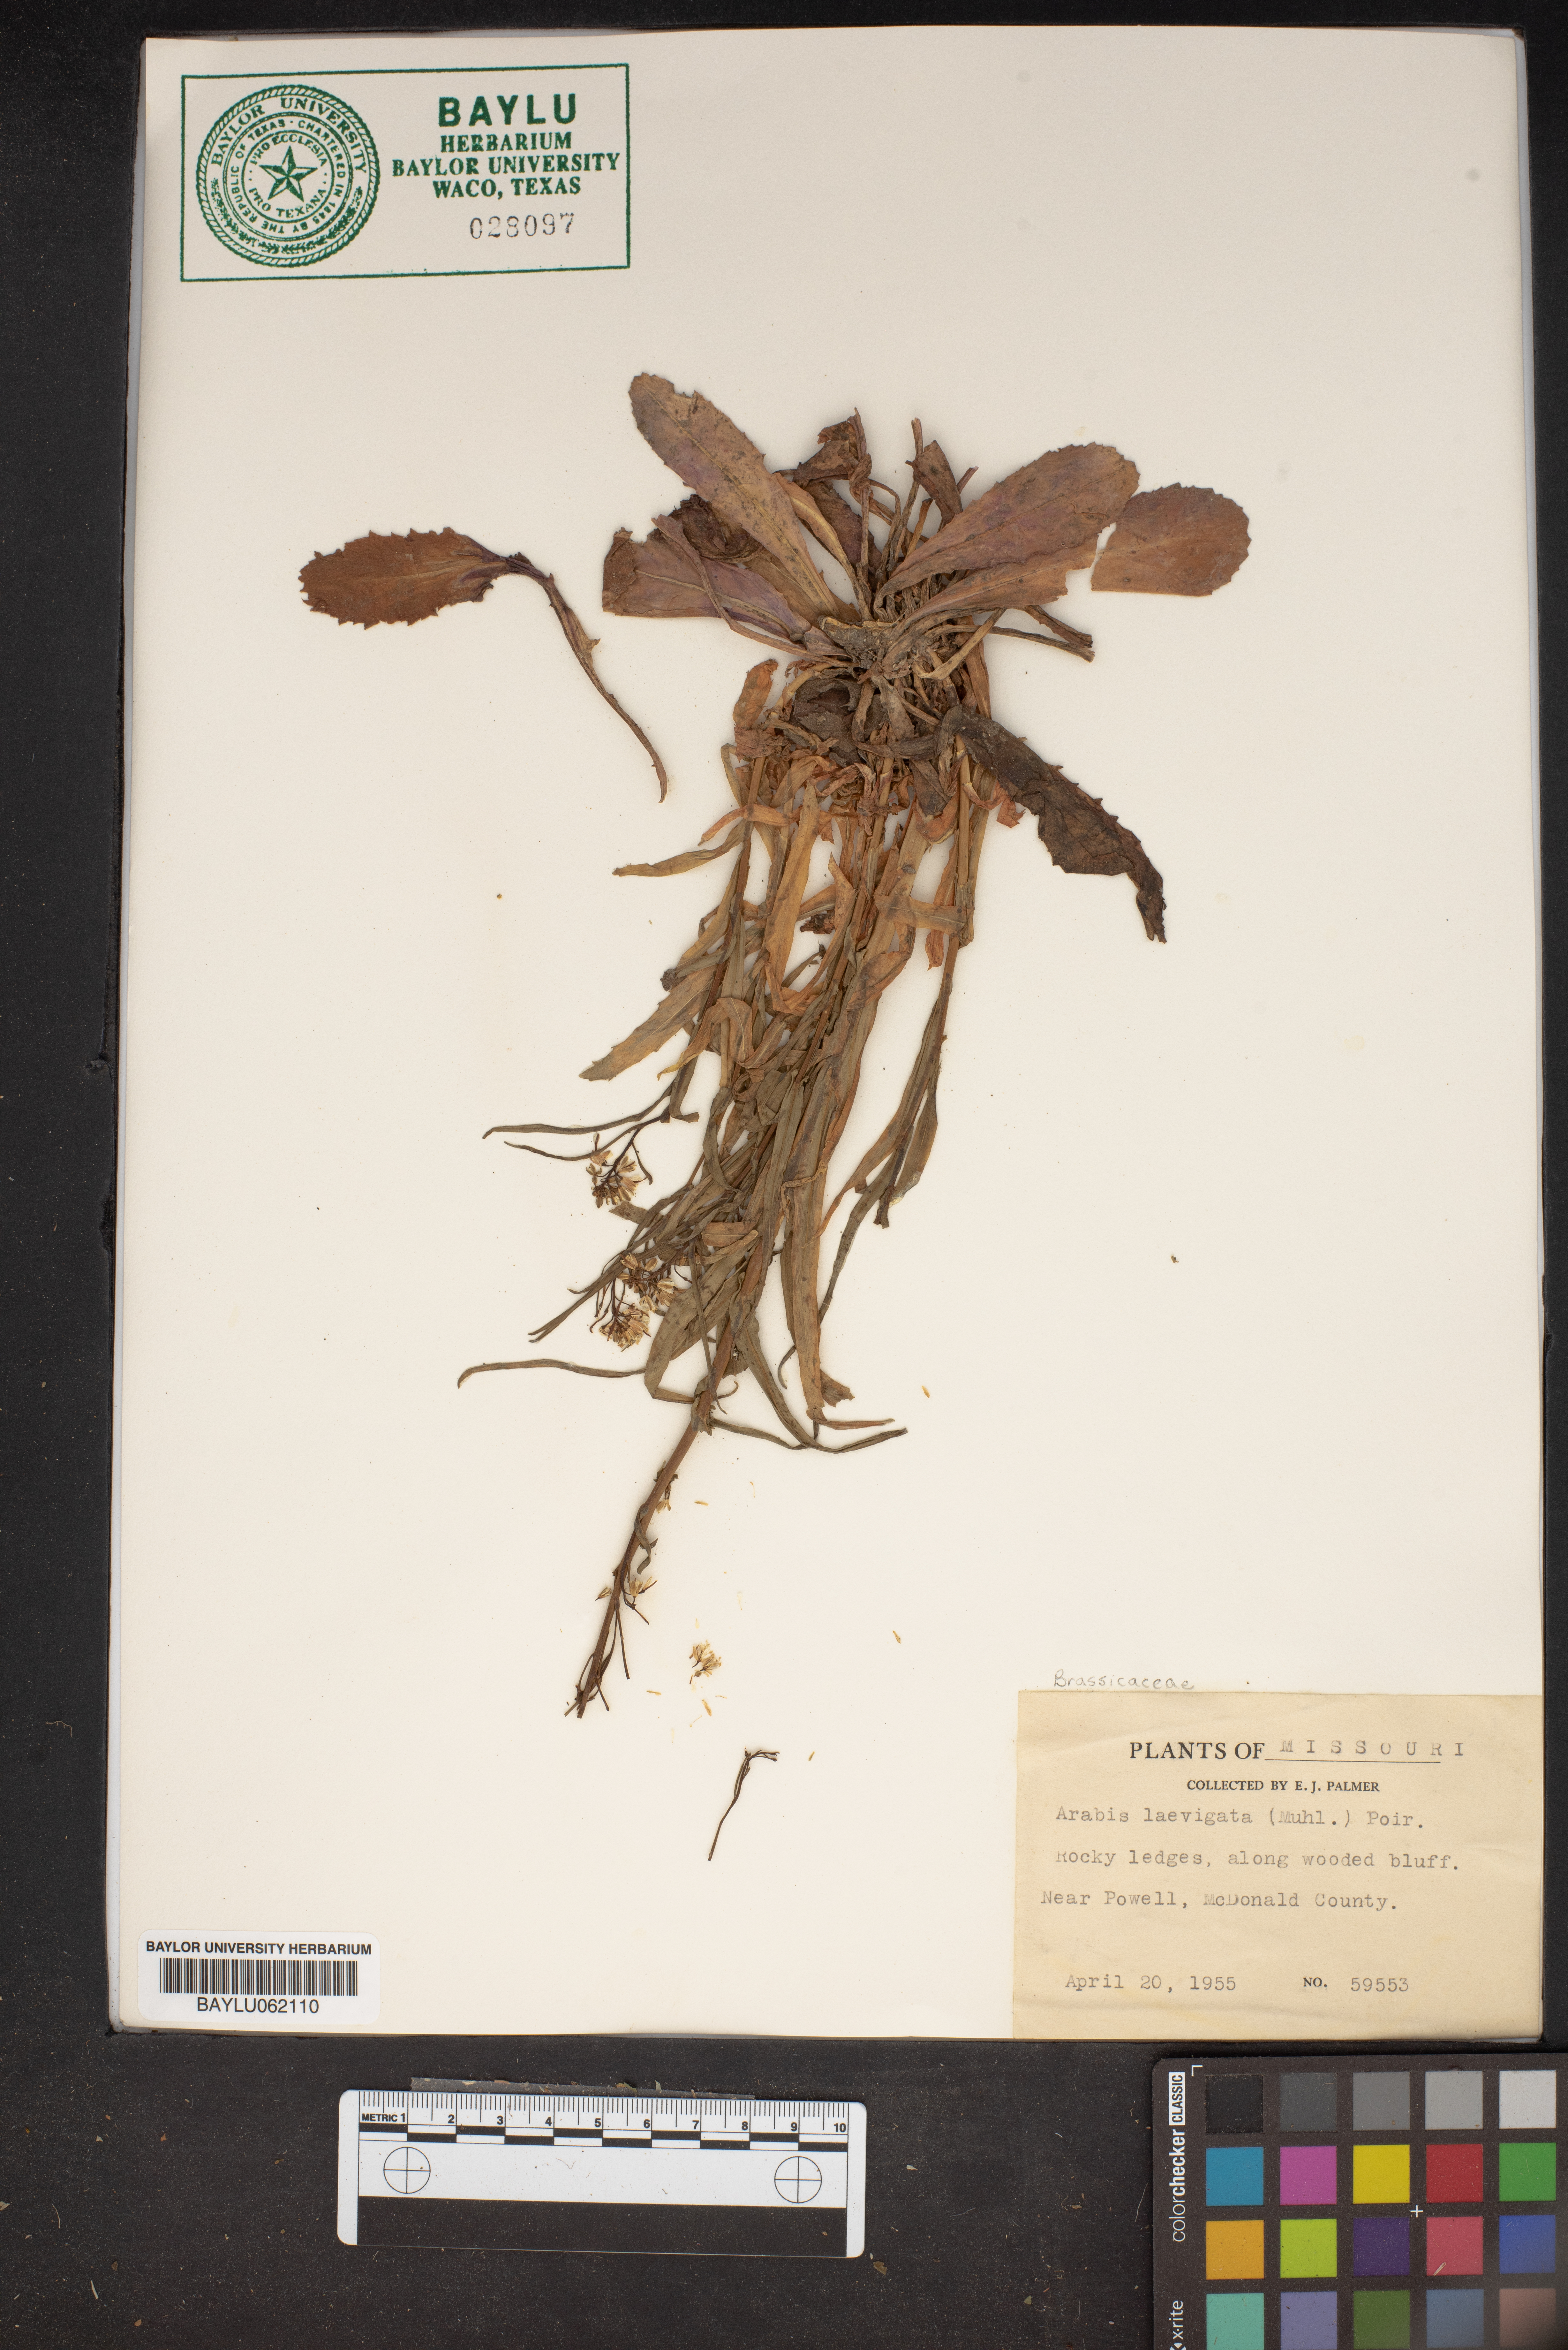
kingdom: Plantae
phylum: Tracheophyta
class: Magnoliopsida
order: Brassicales
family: Brassicaceae
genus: Arabis
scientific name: Arabis laevigata
